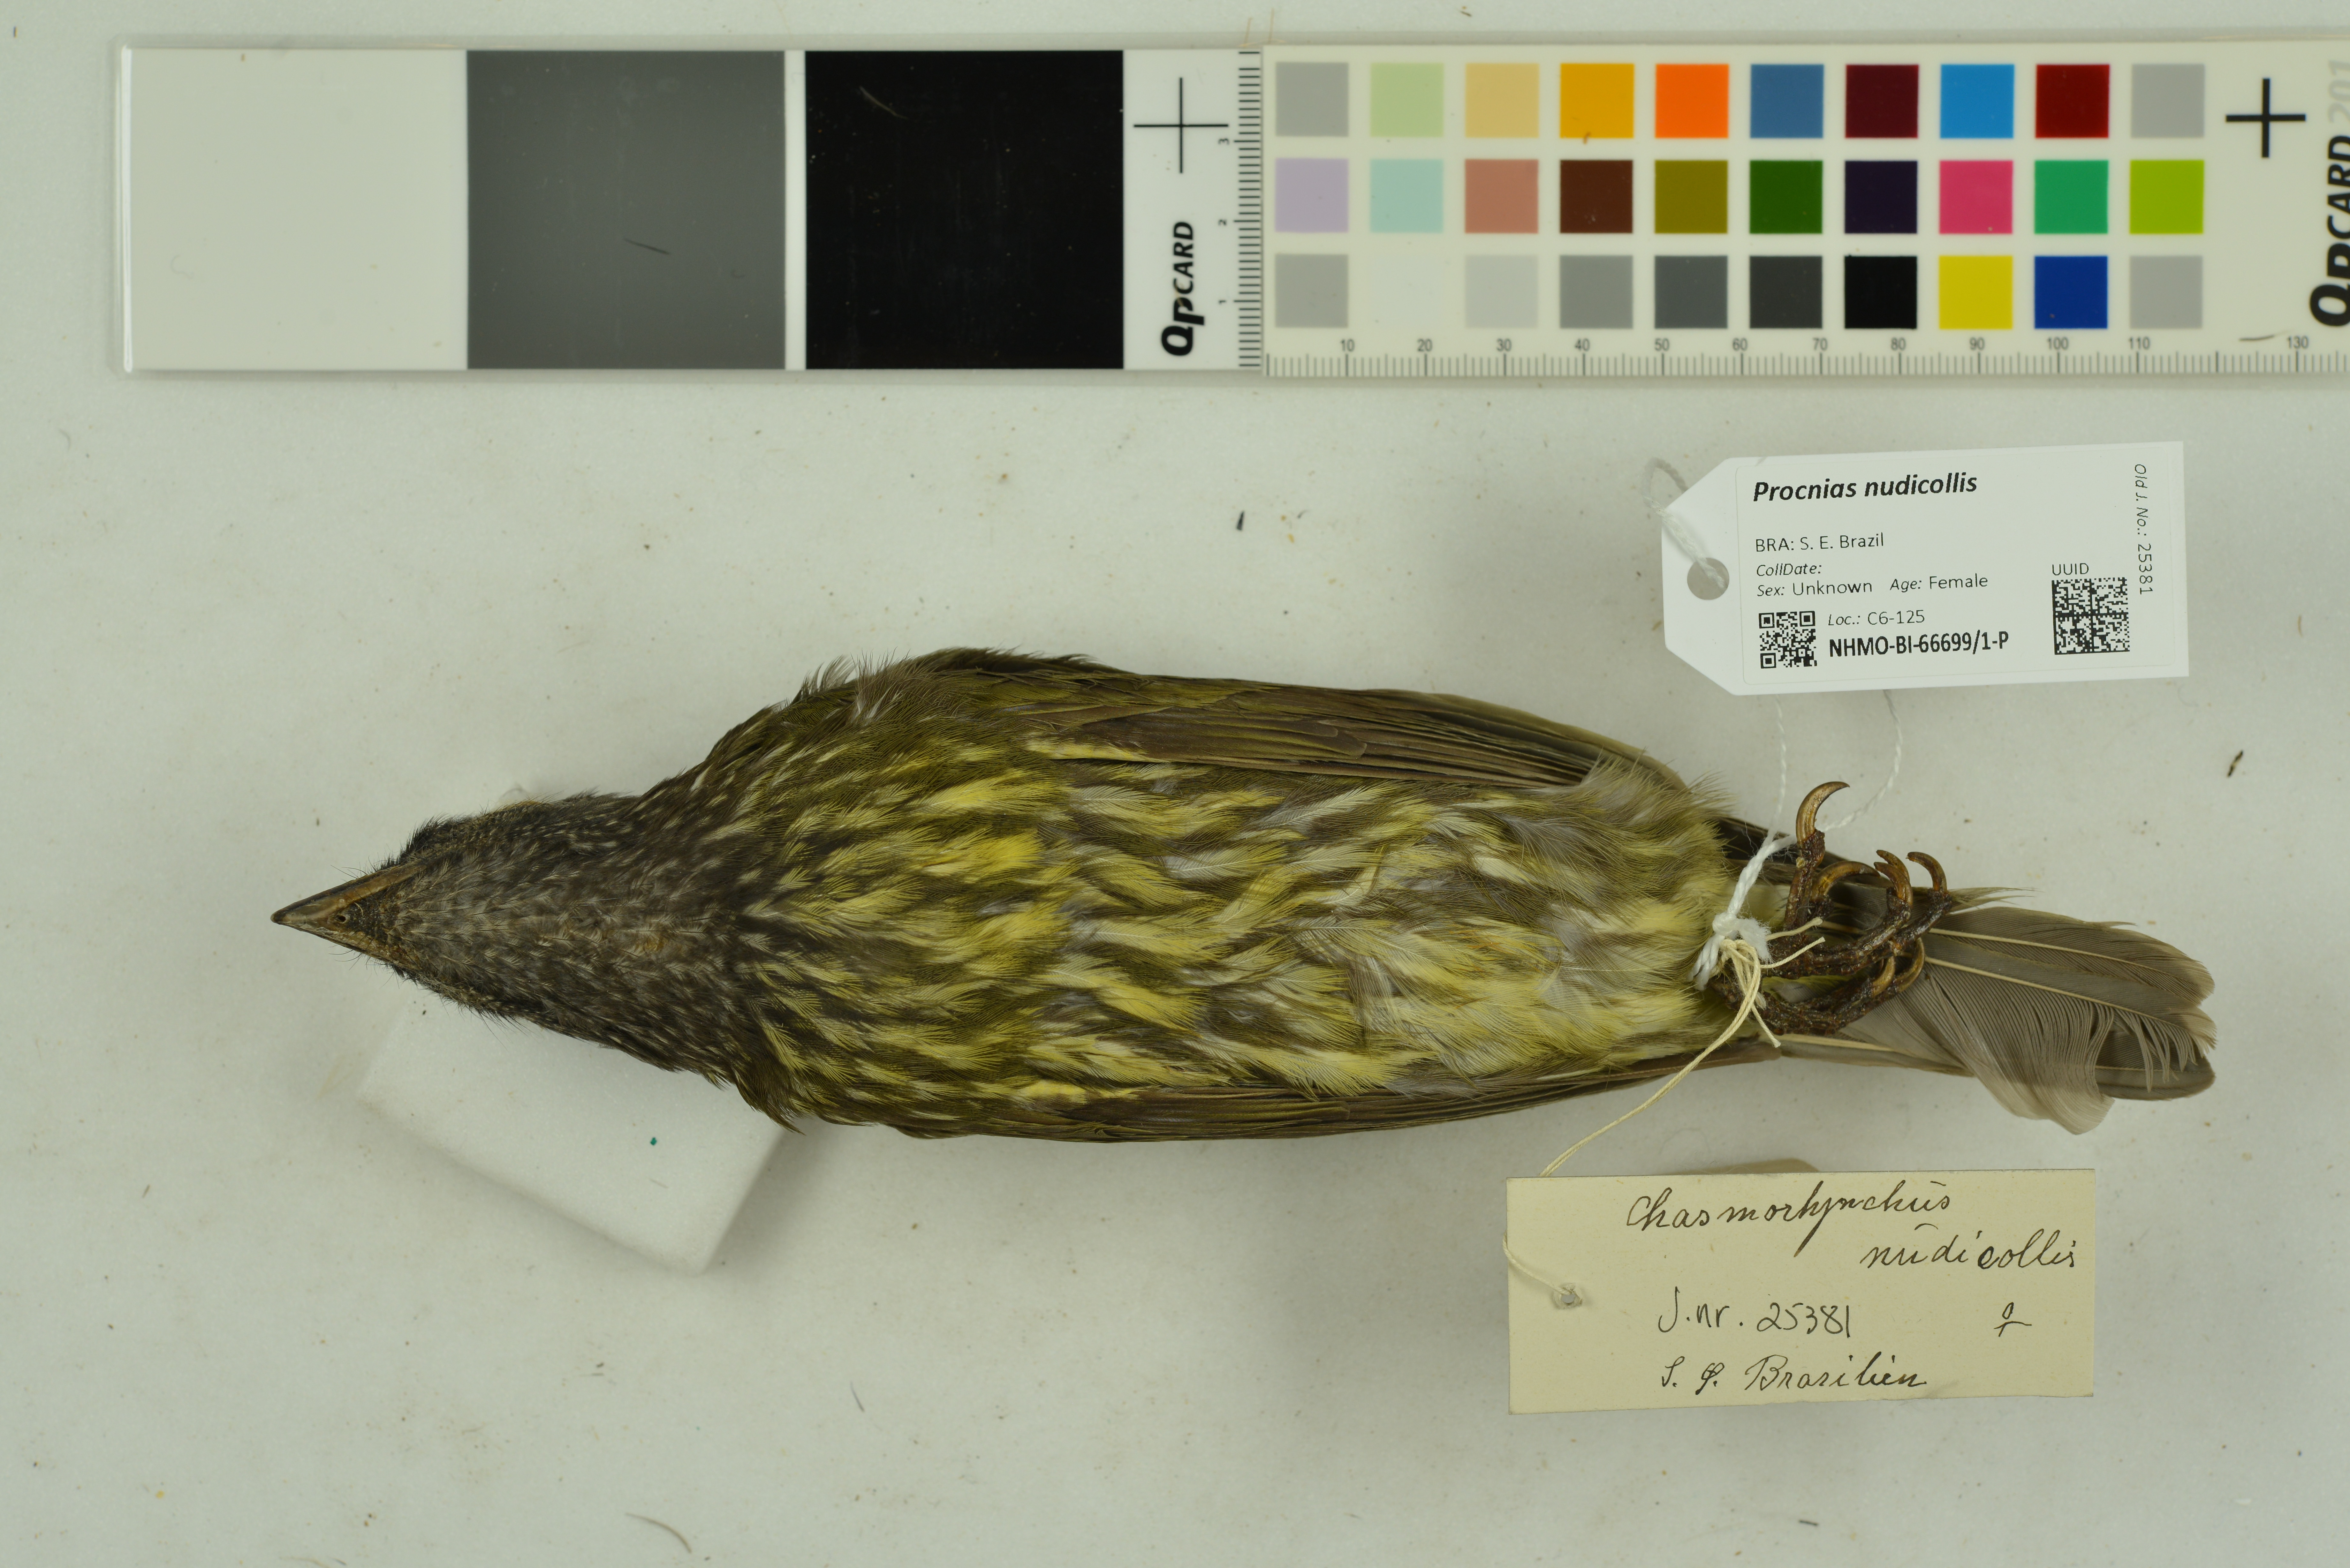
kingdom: Animalia
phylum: Chordata
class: Aves
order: Passeriformes
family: Cotingidae
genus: Procnias
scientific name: Procnias nudicollis
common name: Bare-throated bellbird
